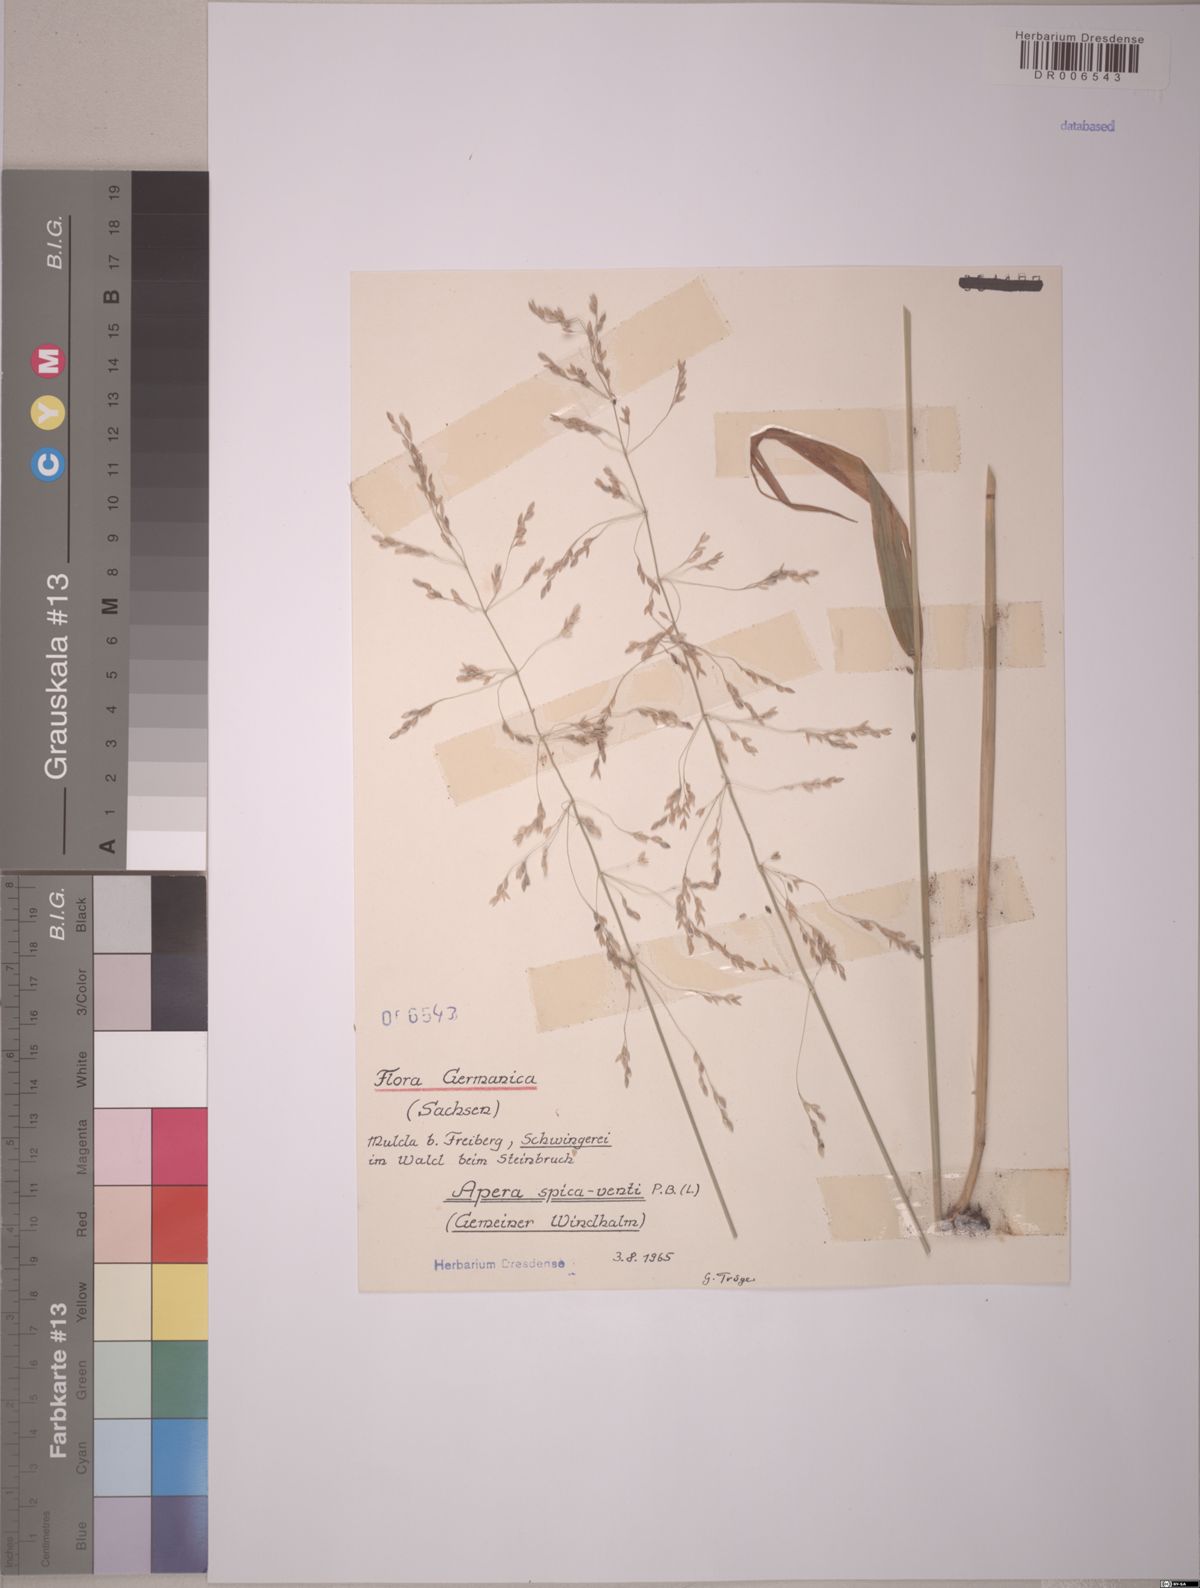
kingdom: Plantae
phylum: Tracheophyta
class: Liliopsida
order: Poales
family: Poaceae
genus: Apera
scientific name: Apera spica-venti
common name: Loose silky-bent
